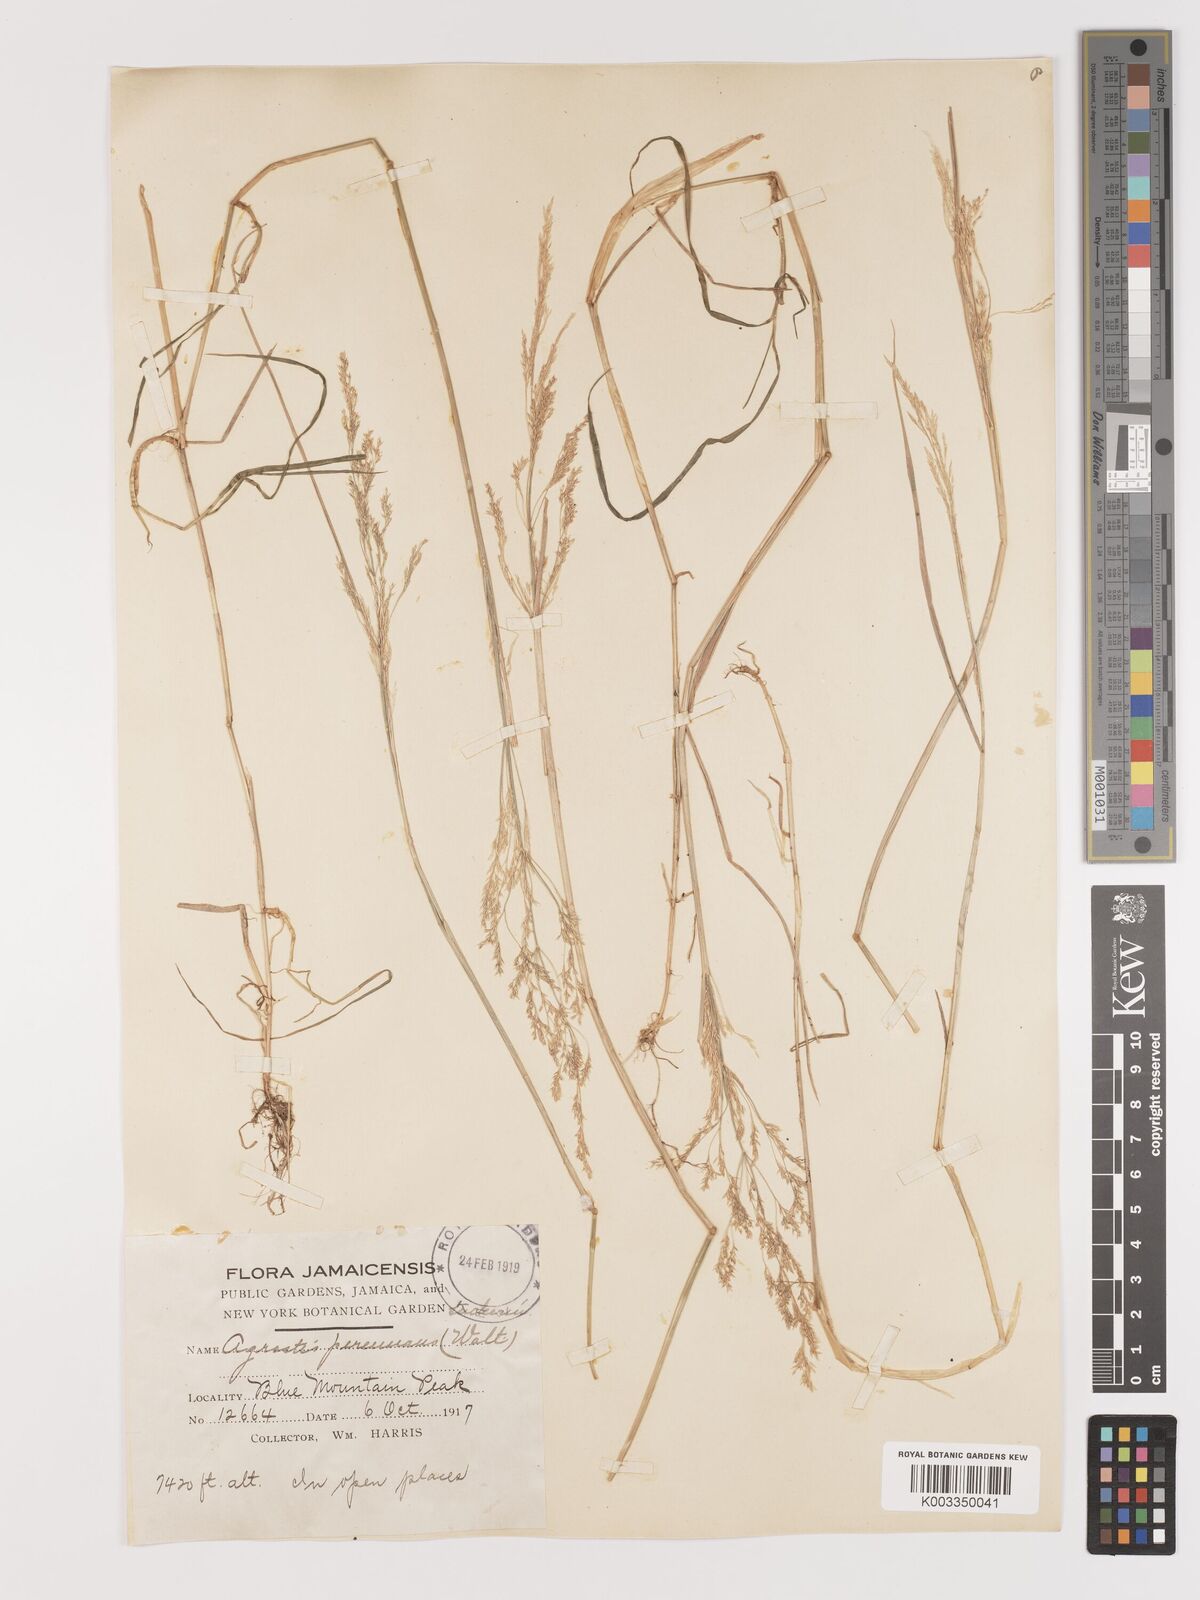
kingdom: Plantae
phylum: Tracheophyta
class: Liliopsida
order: Poales
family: Poaceae
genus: Agrostis
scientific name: Agrostis gigantea
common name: Black bent
